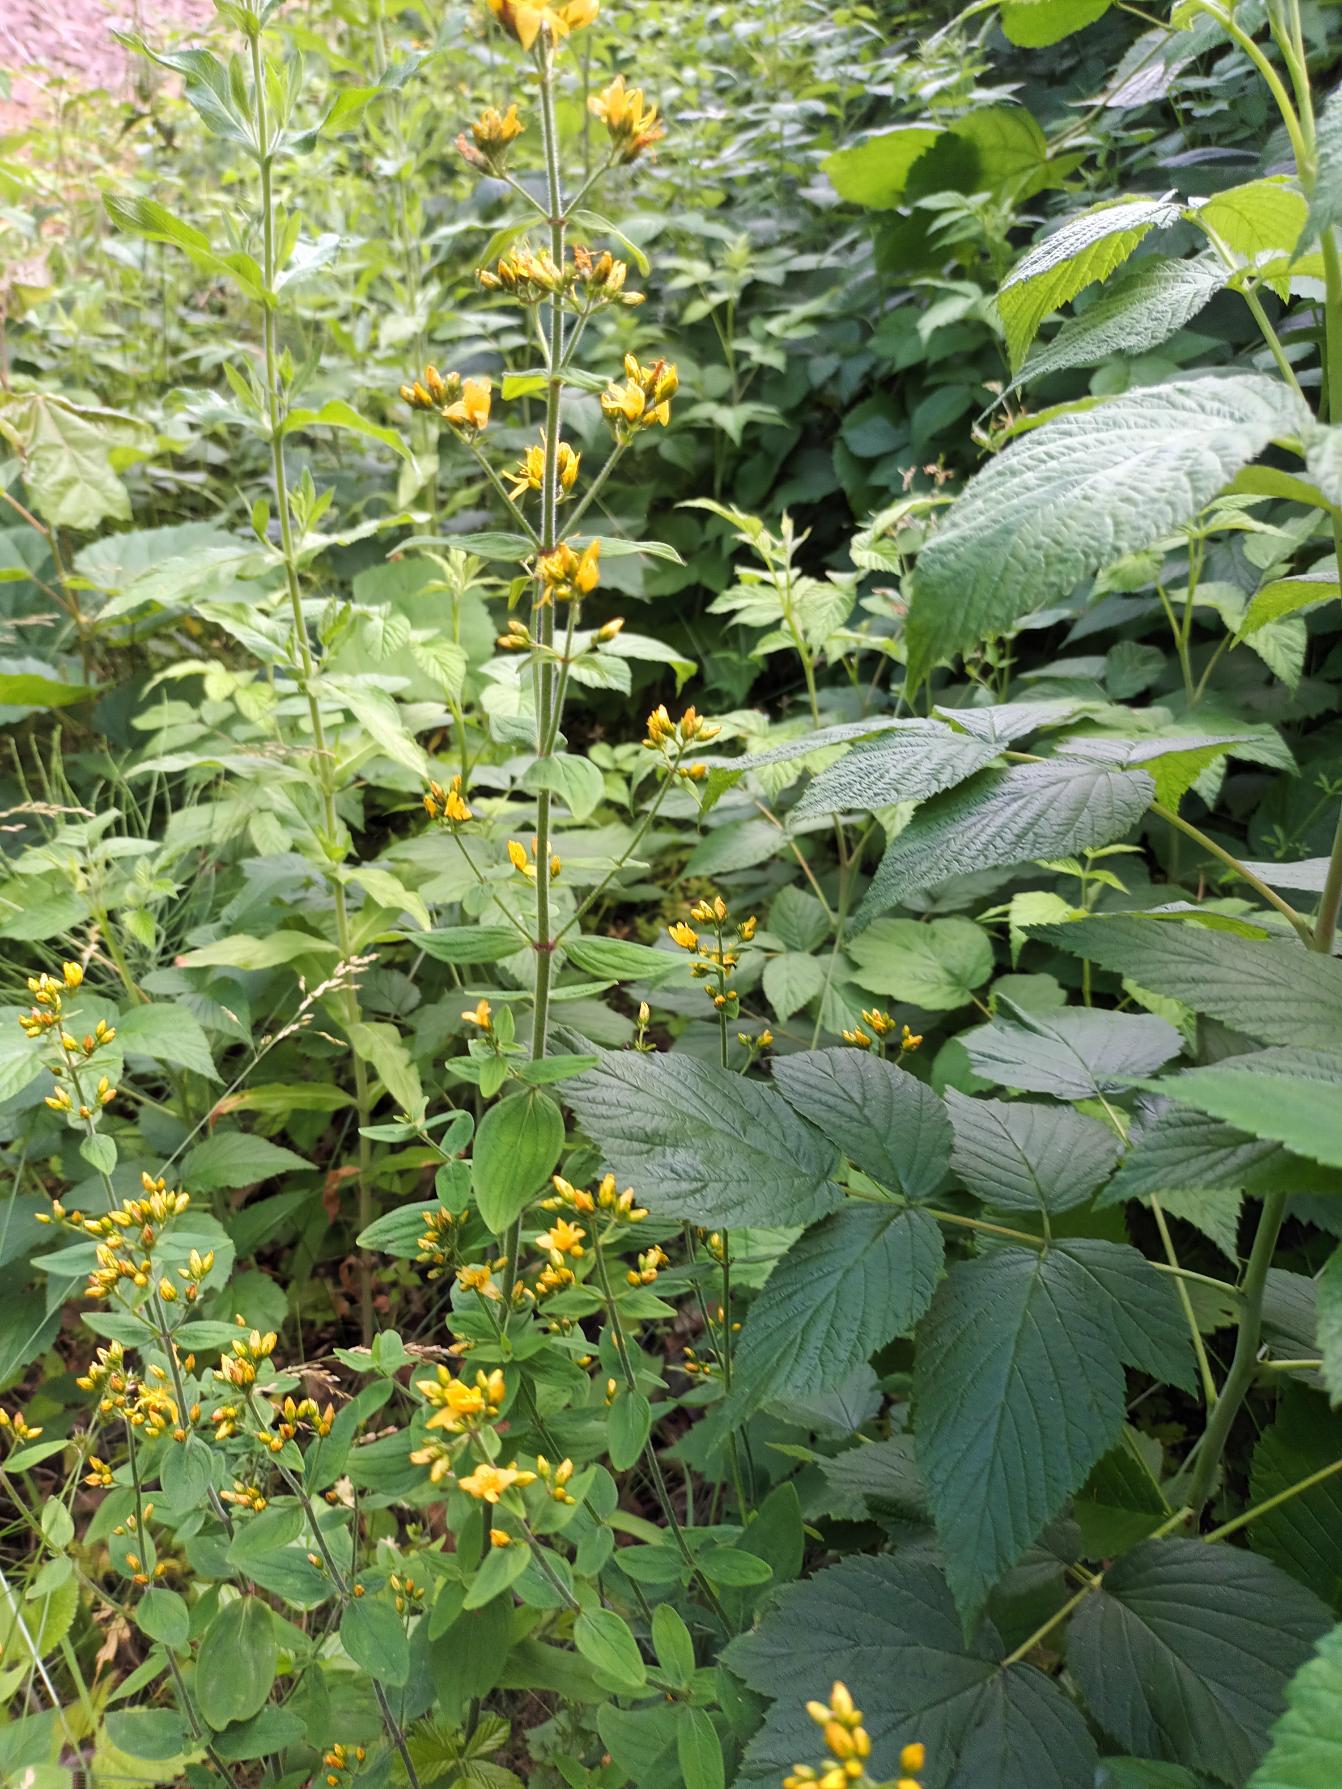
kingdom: Plantae
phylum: Tracheophyta
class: Magnoliopsida
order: Malpighiales
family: Hypericaceae
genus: Hypericum
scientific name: Hypericum hirsutum
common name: Lådden perikon
